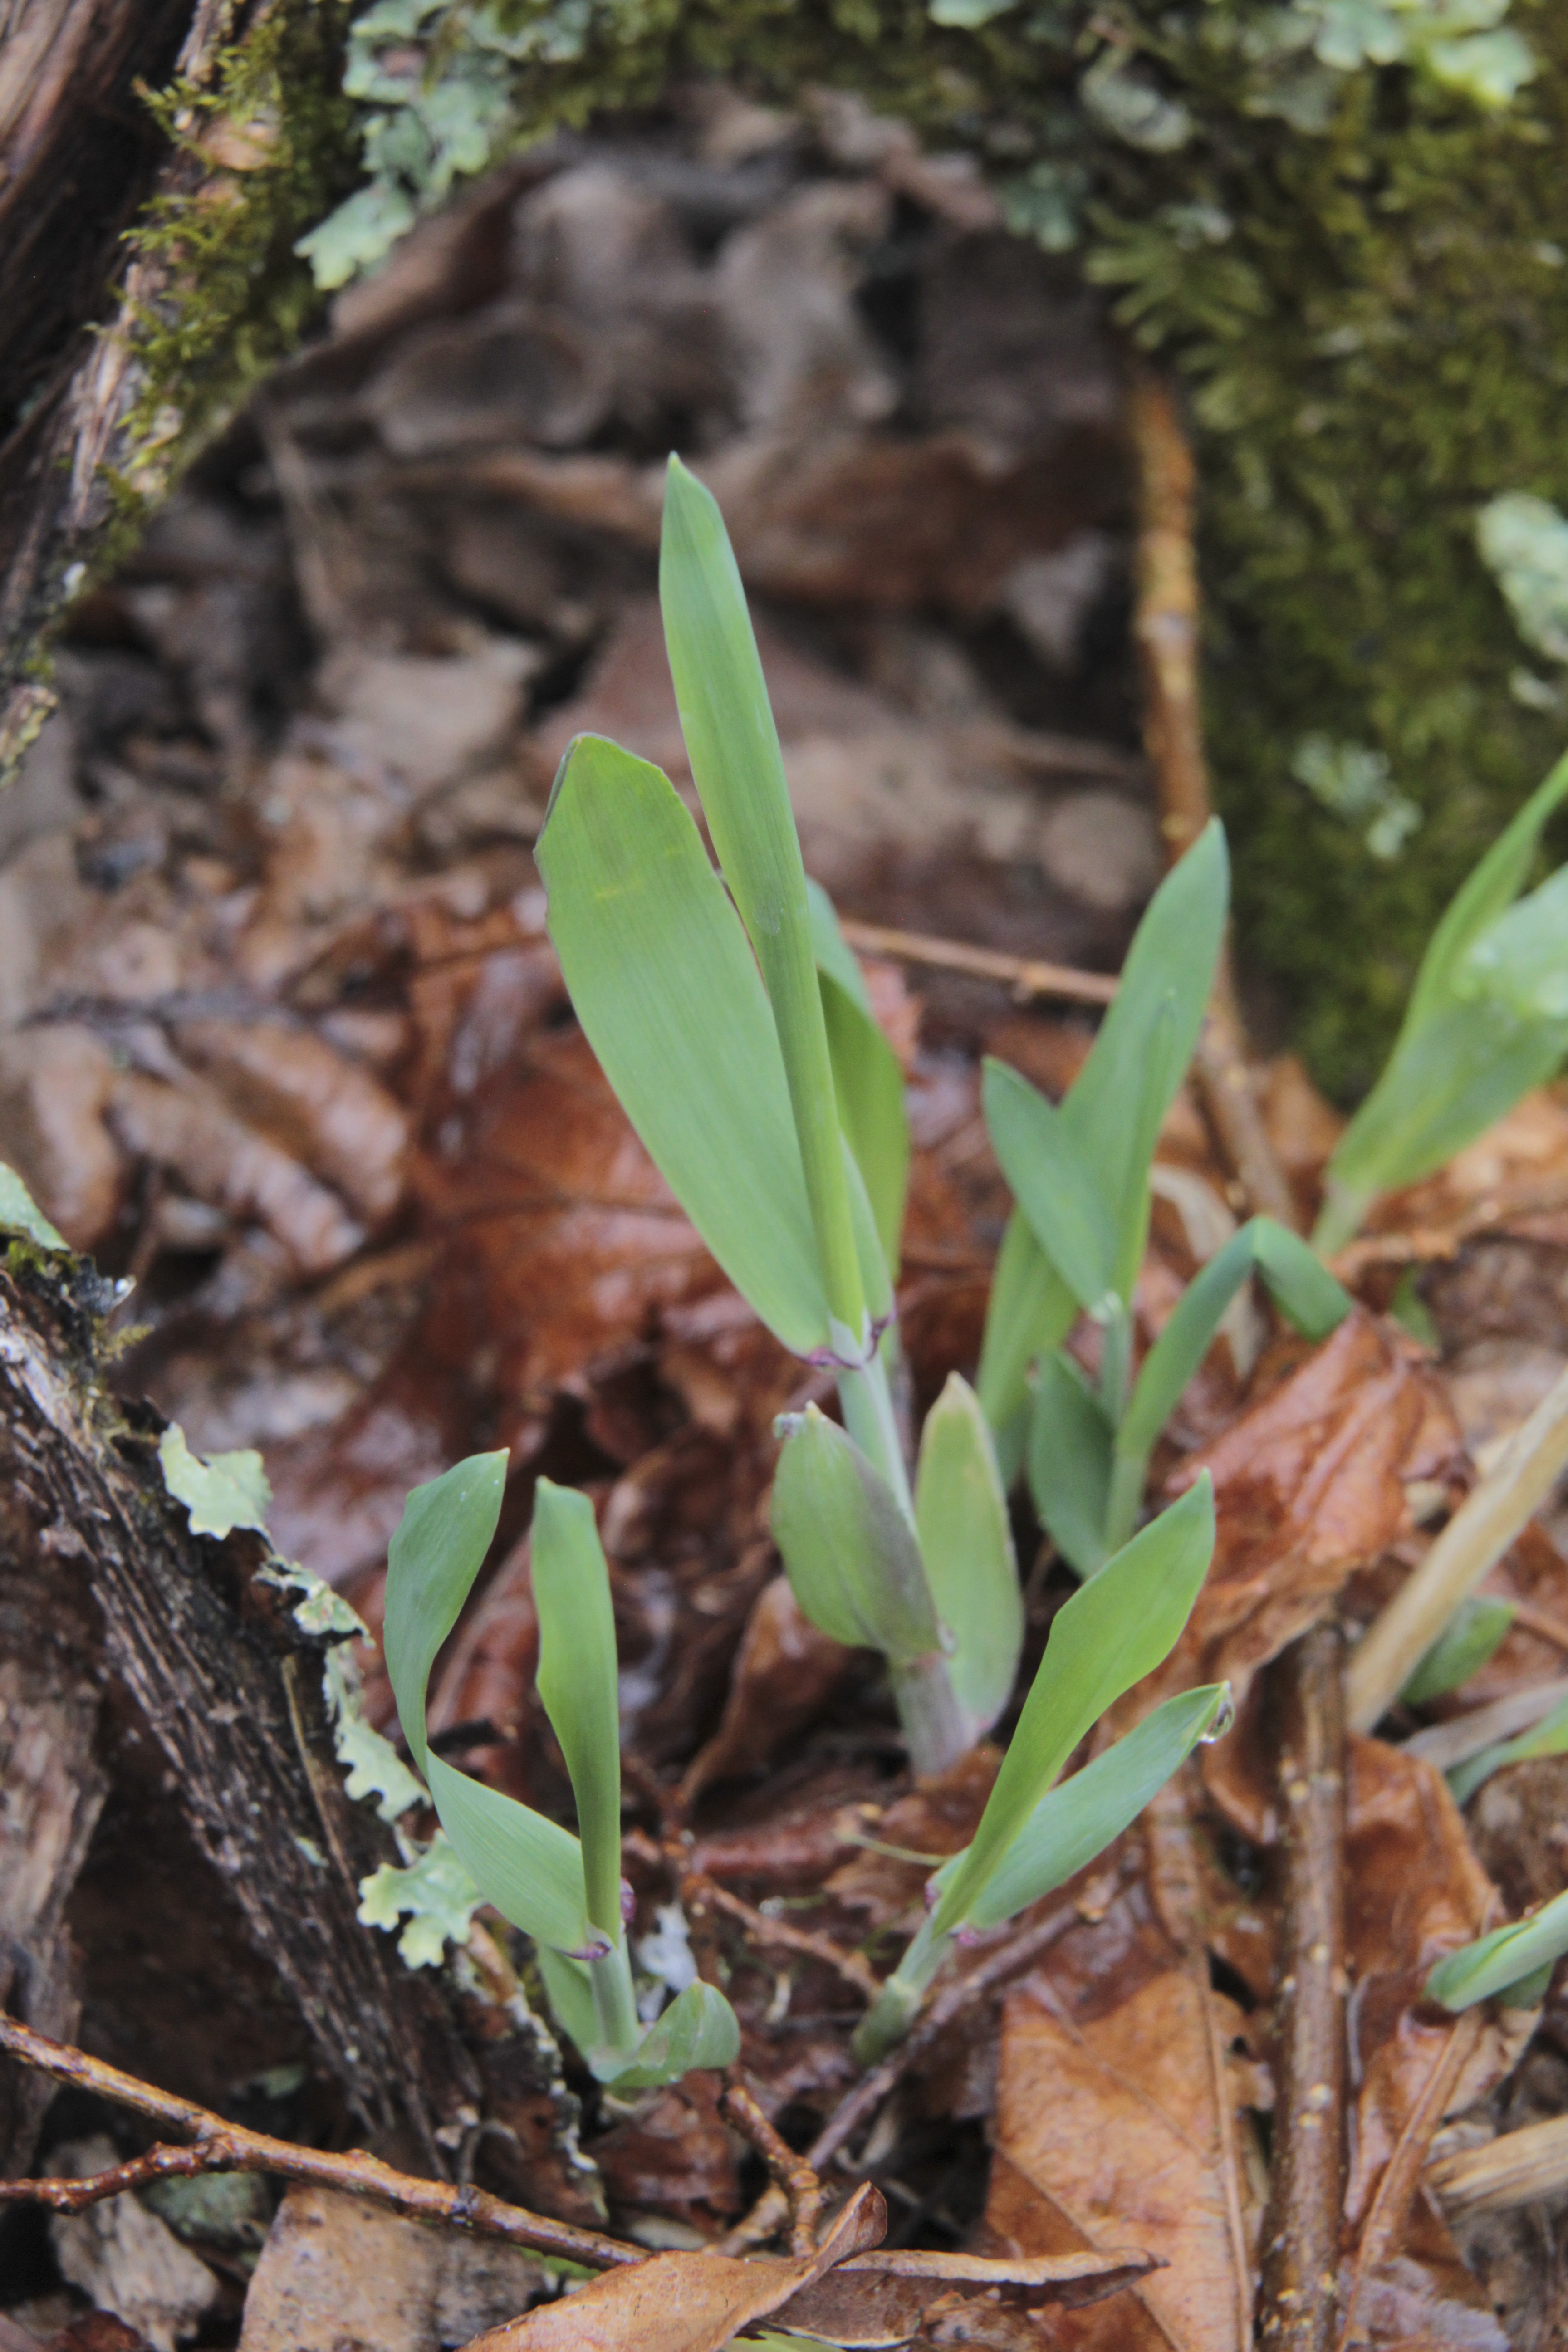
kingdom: Plantae
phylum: Tracheophyta
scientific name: Tracheophyta
